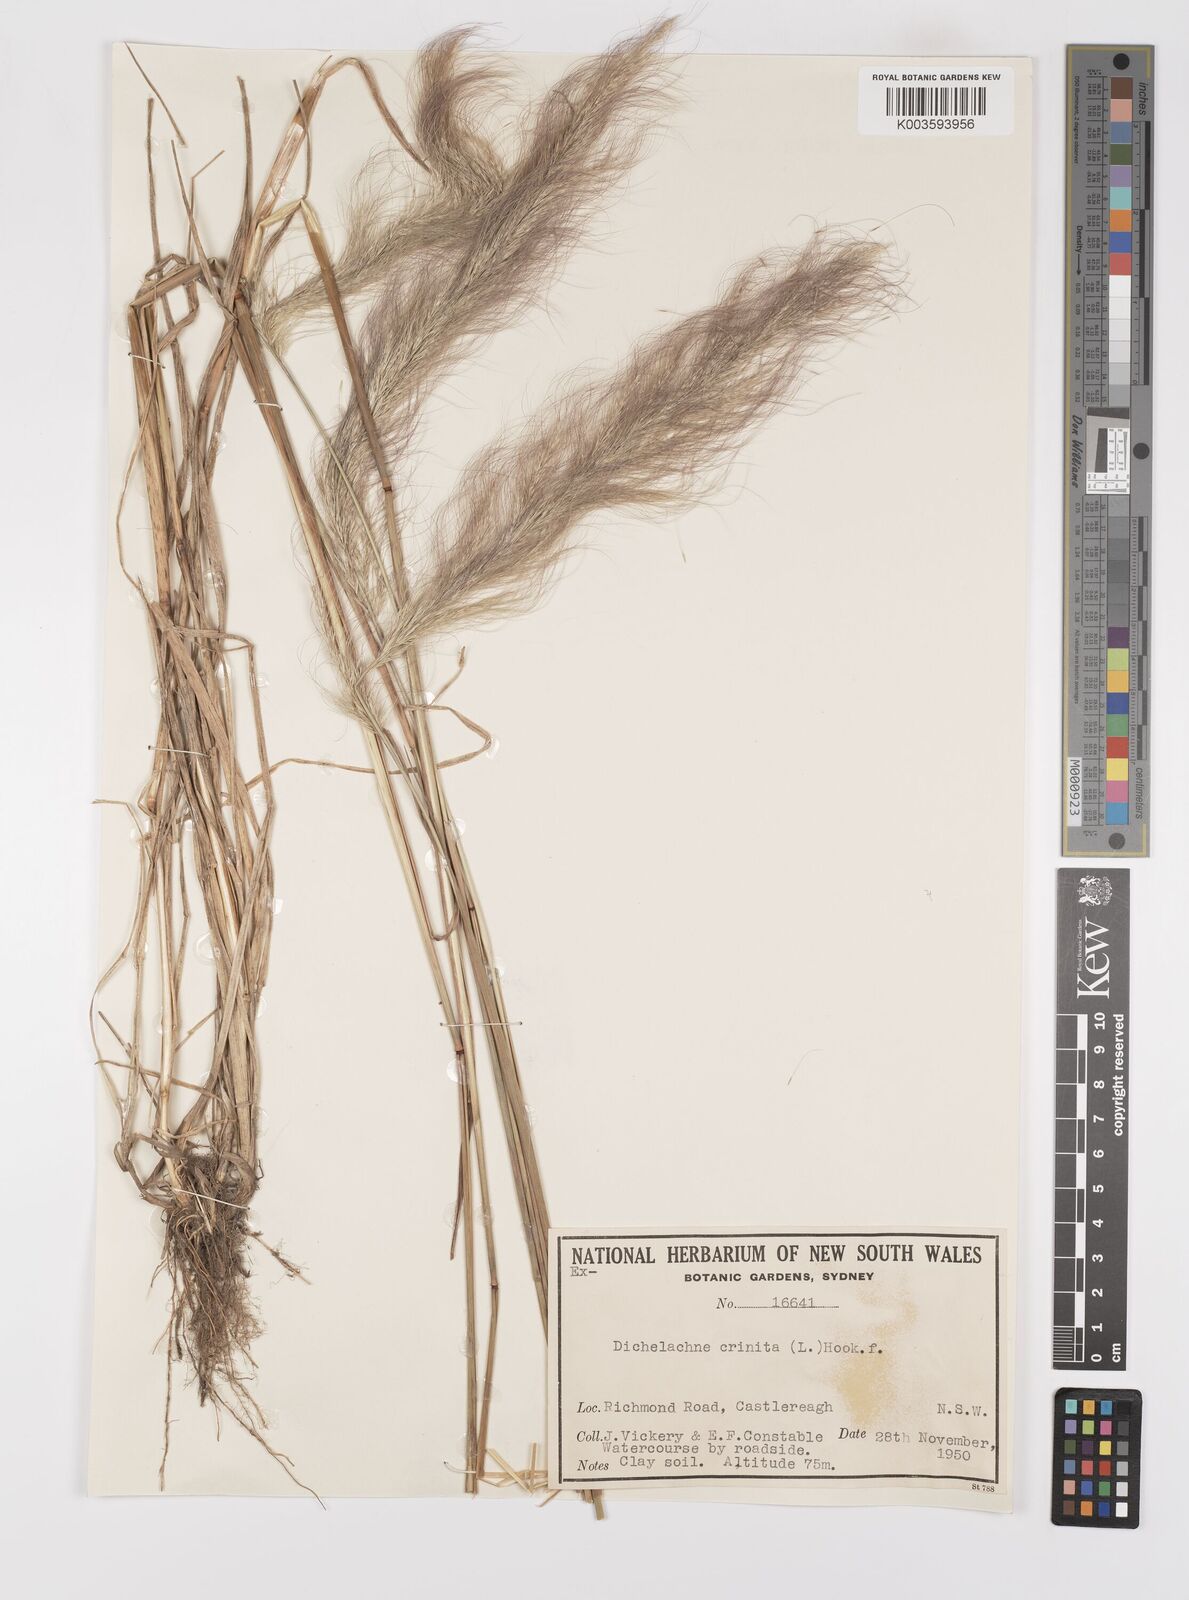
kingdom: Plantae
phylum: Tracheophyta
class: Liliopsida
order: Poales
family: Poaceae
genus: Dichelachne
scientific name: Dichelachne
